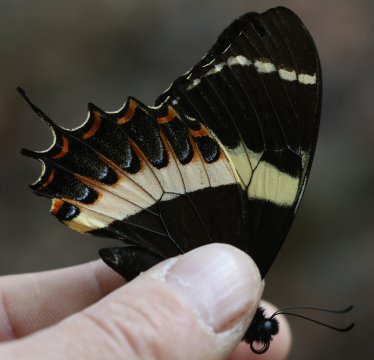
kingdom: Animalia
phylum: Arthropoda
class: Insecta
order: Lepidoptera
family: Papilionidae
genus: Pterourus
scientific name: Pterourus garamas
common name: Magnificent Swallowtail
